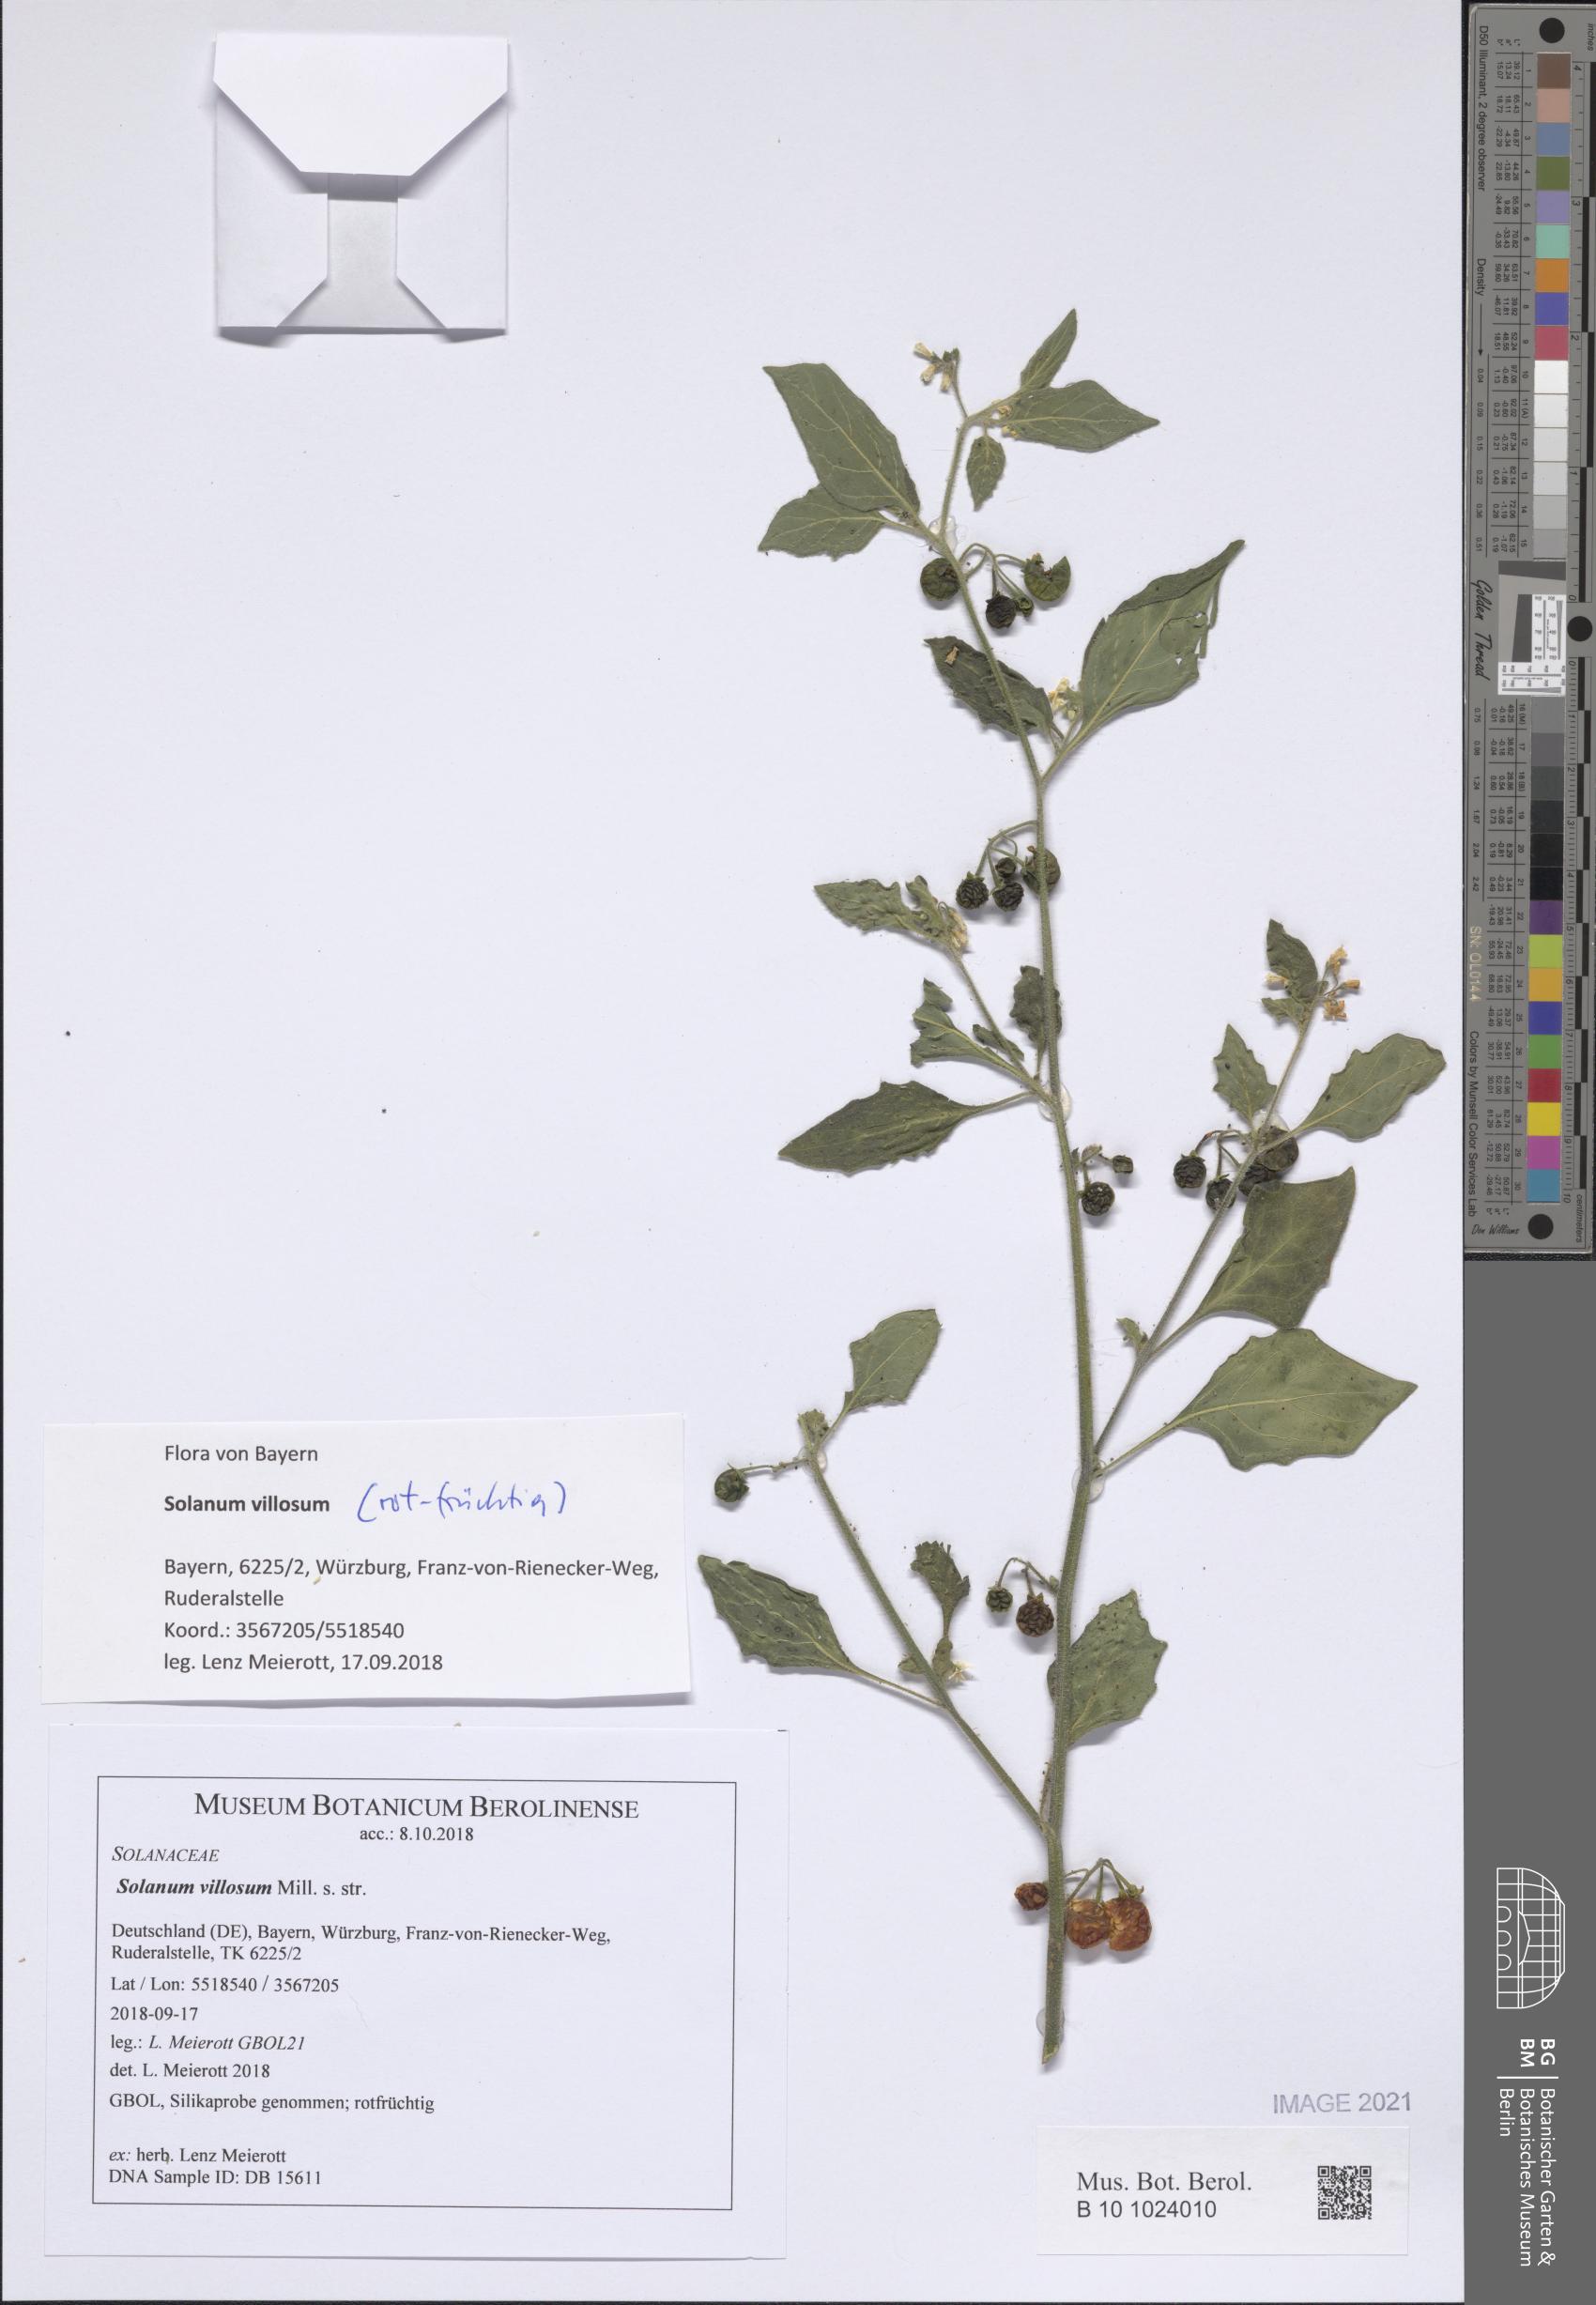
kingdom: Plantae
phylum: Tracheophyta
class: Magnoliopsida
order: Solanales
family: Solanaceae
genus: Solanum
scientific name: Solanum villosum
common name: Red nightshade
